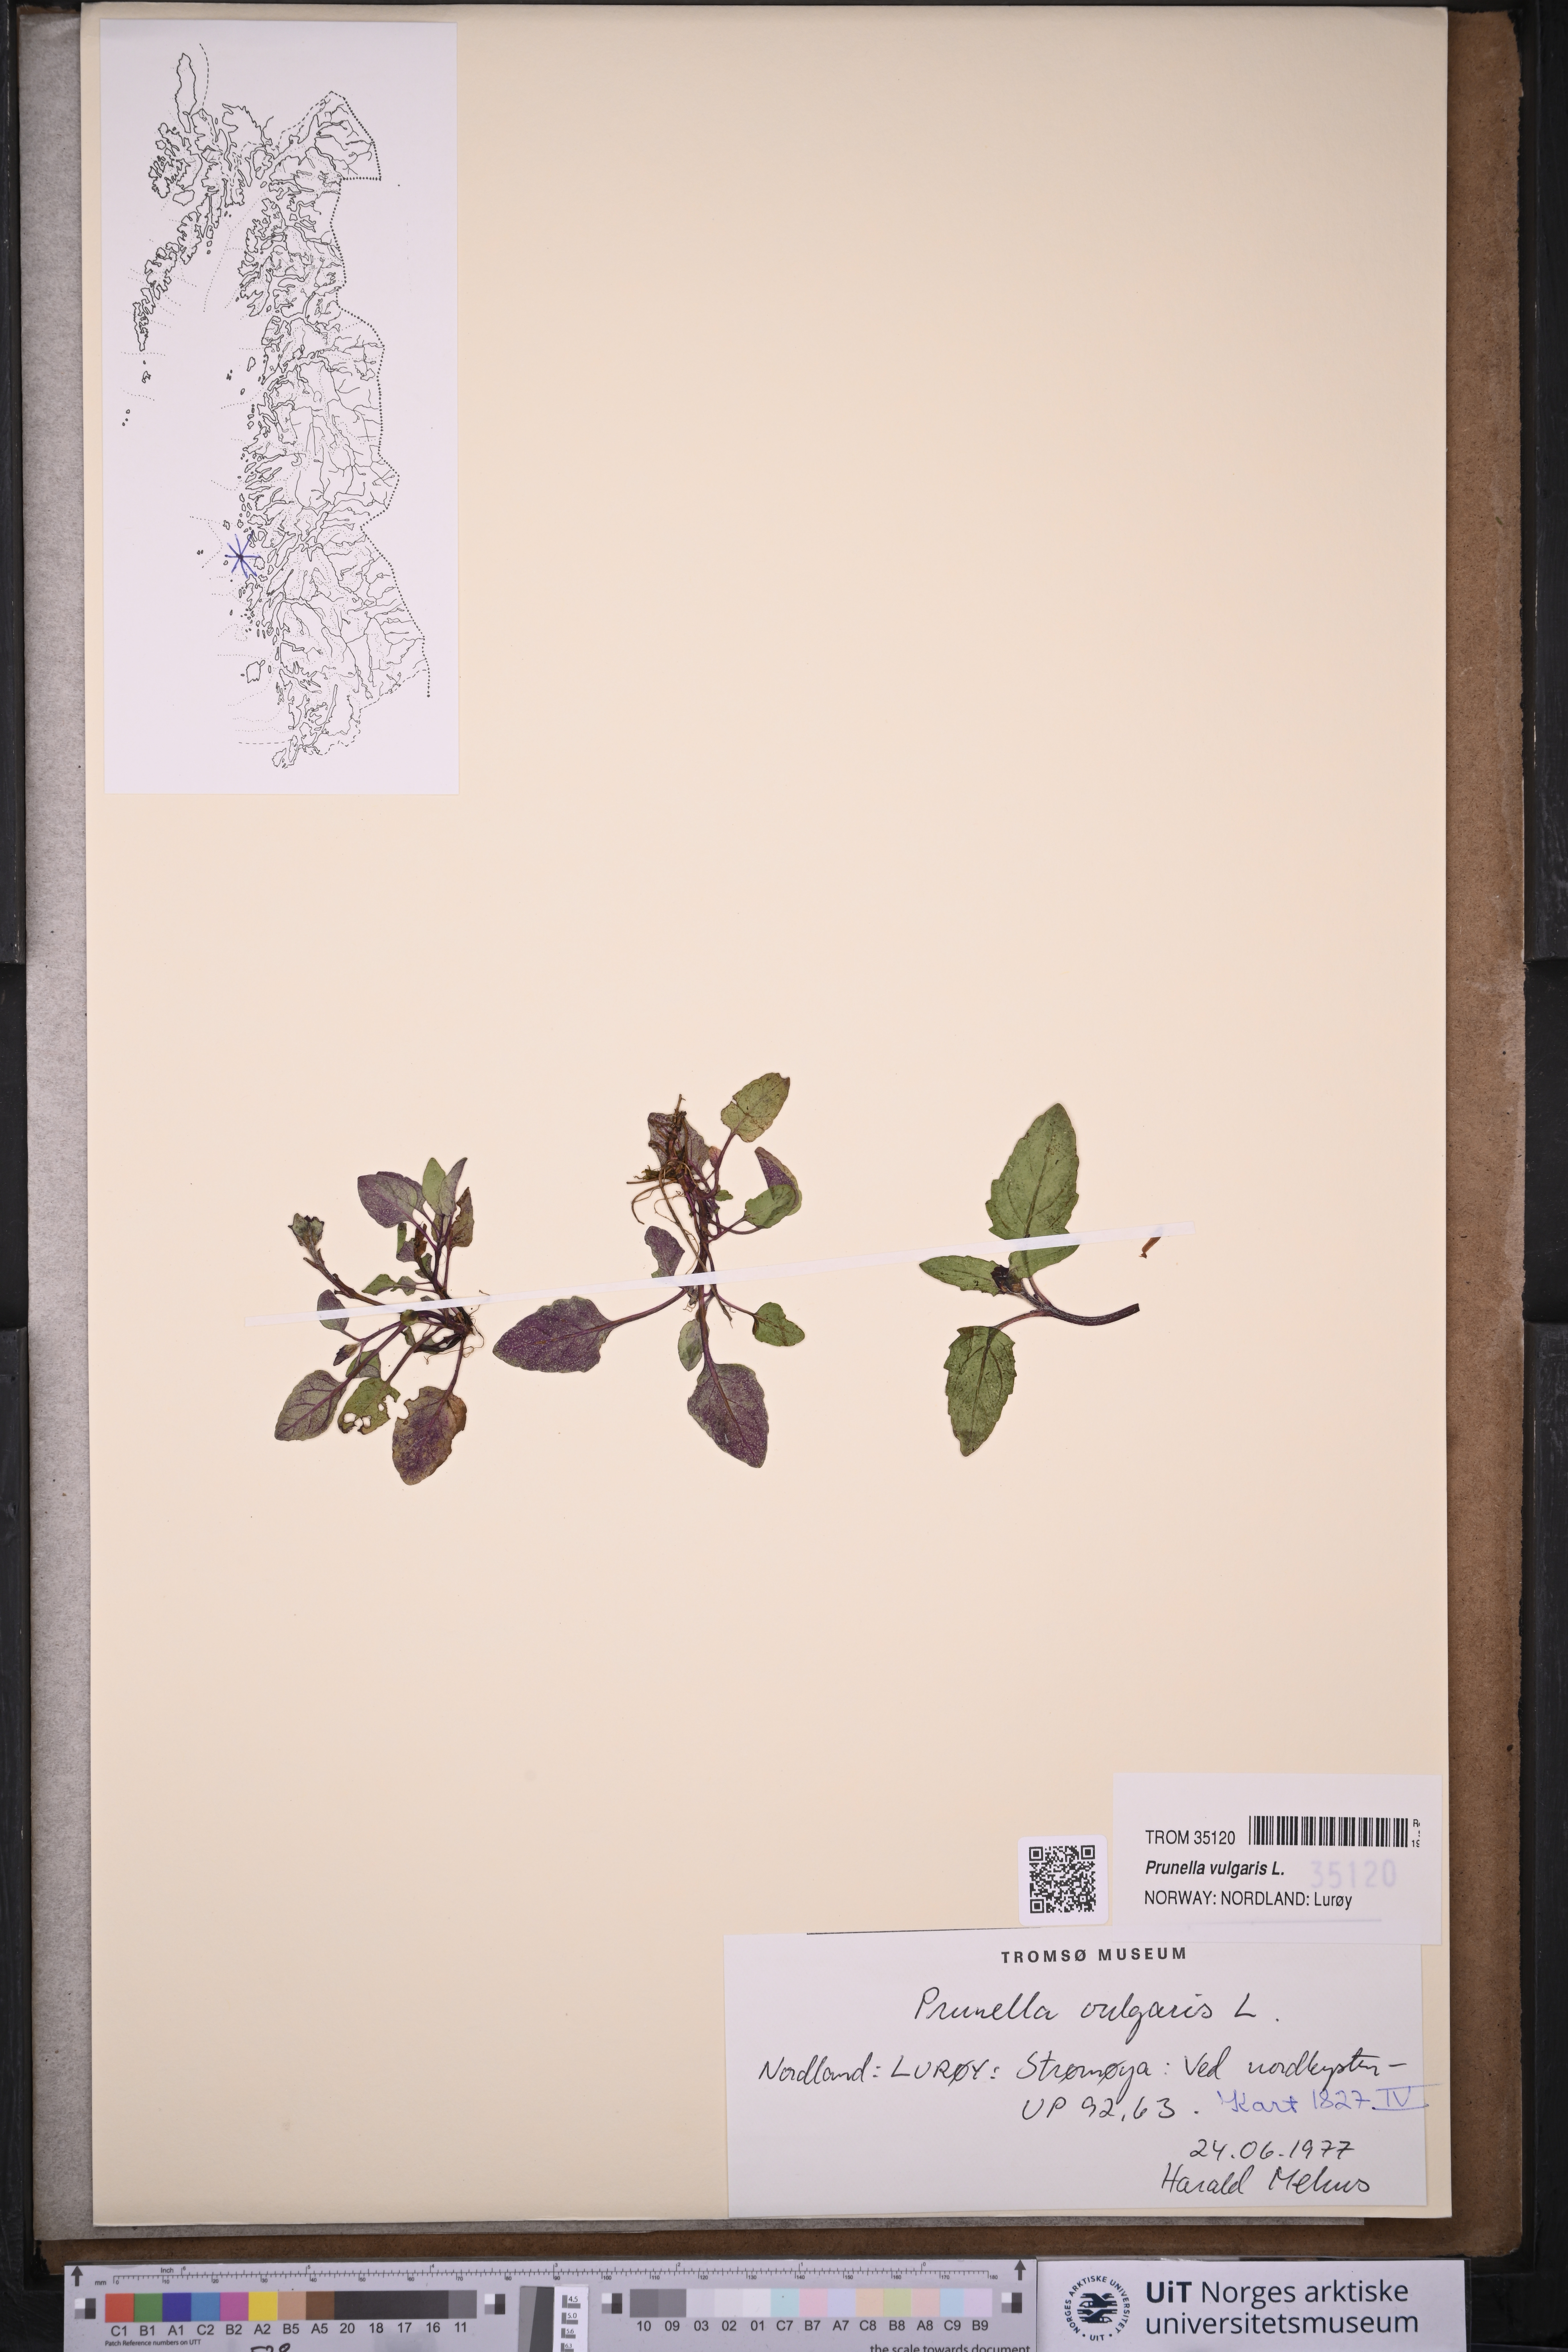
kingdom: Plantae
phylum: Tracheophyta
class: Magnoliopsida
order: Lamiales
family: Lamiaceae
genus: Prunella
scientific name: Prunella vulgaris
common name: Heal-all
